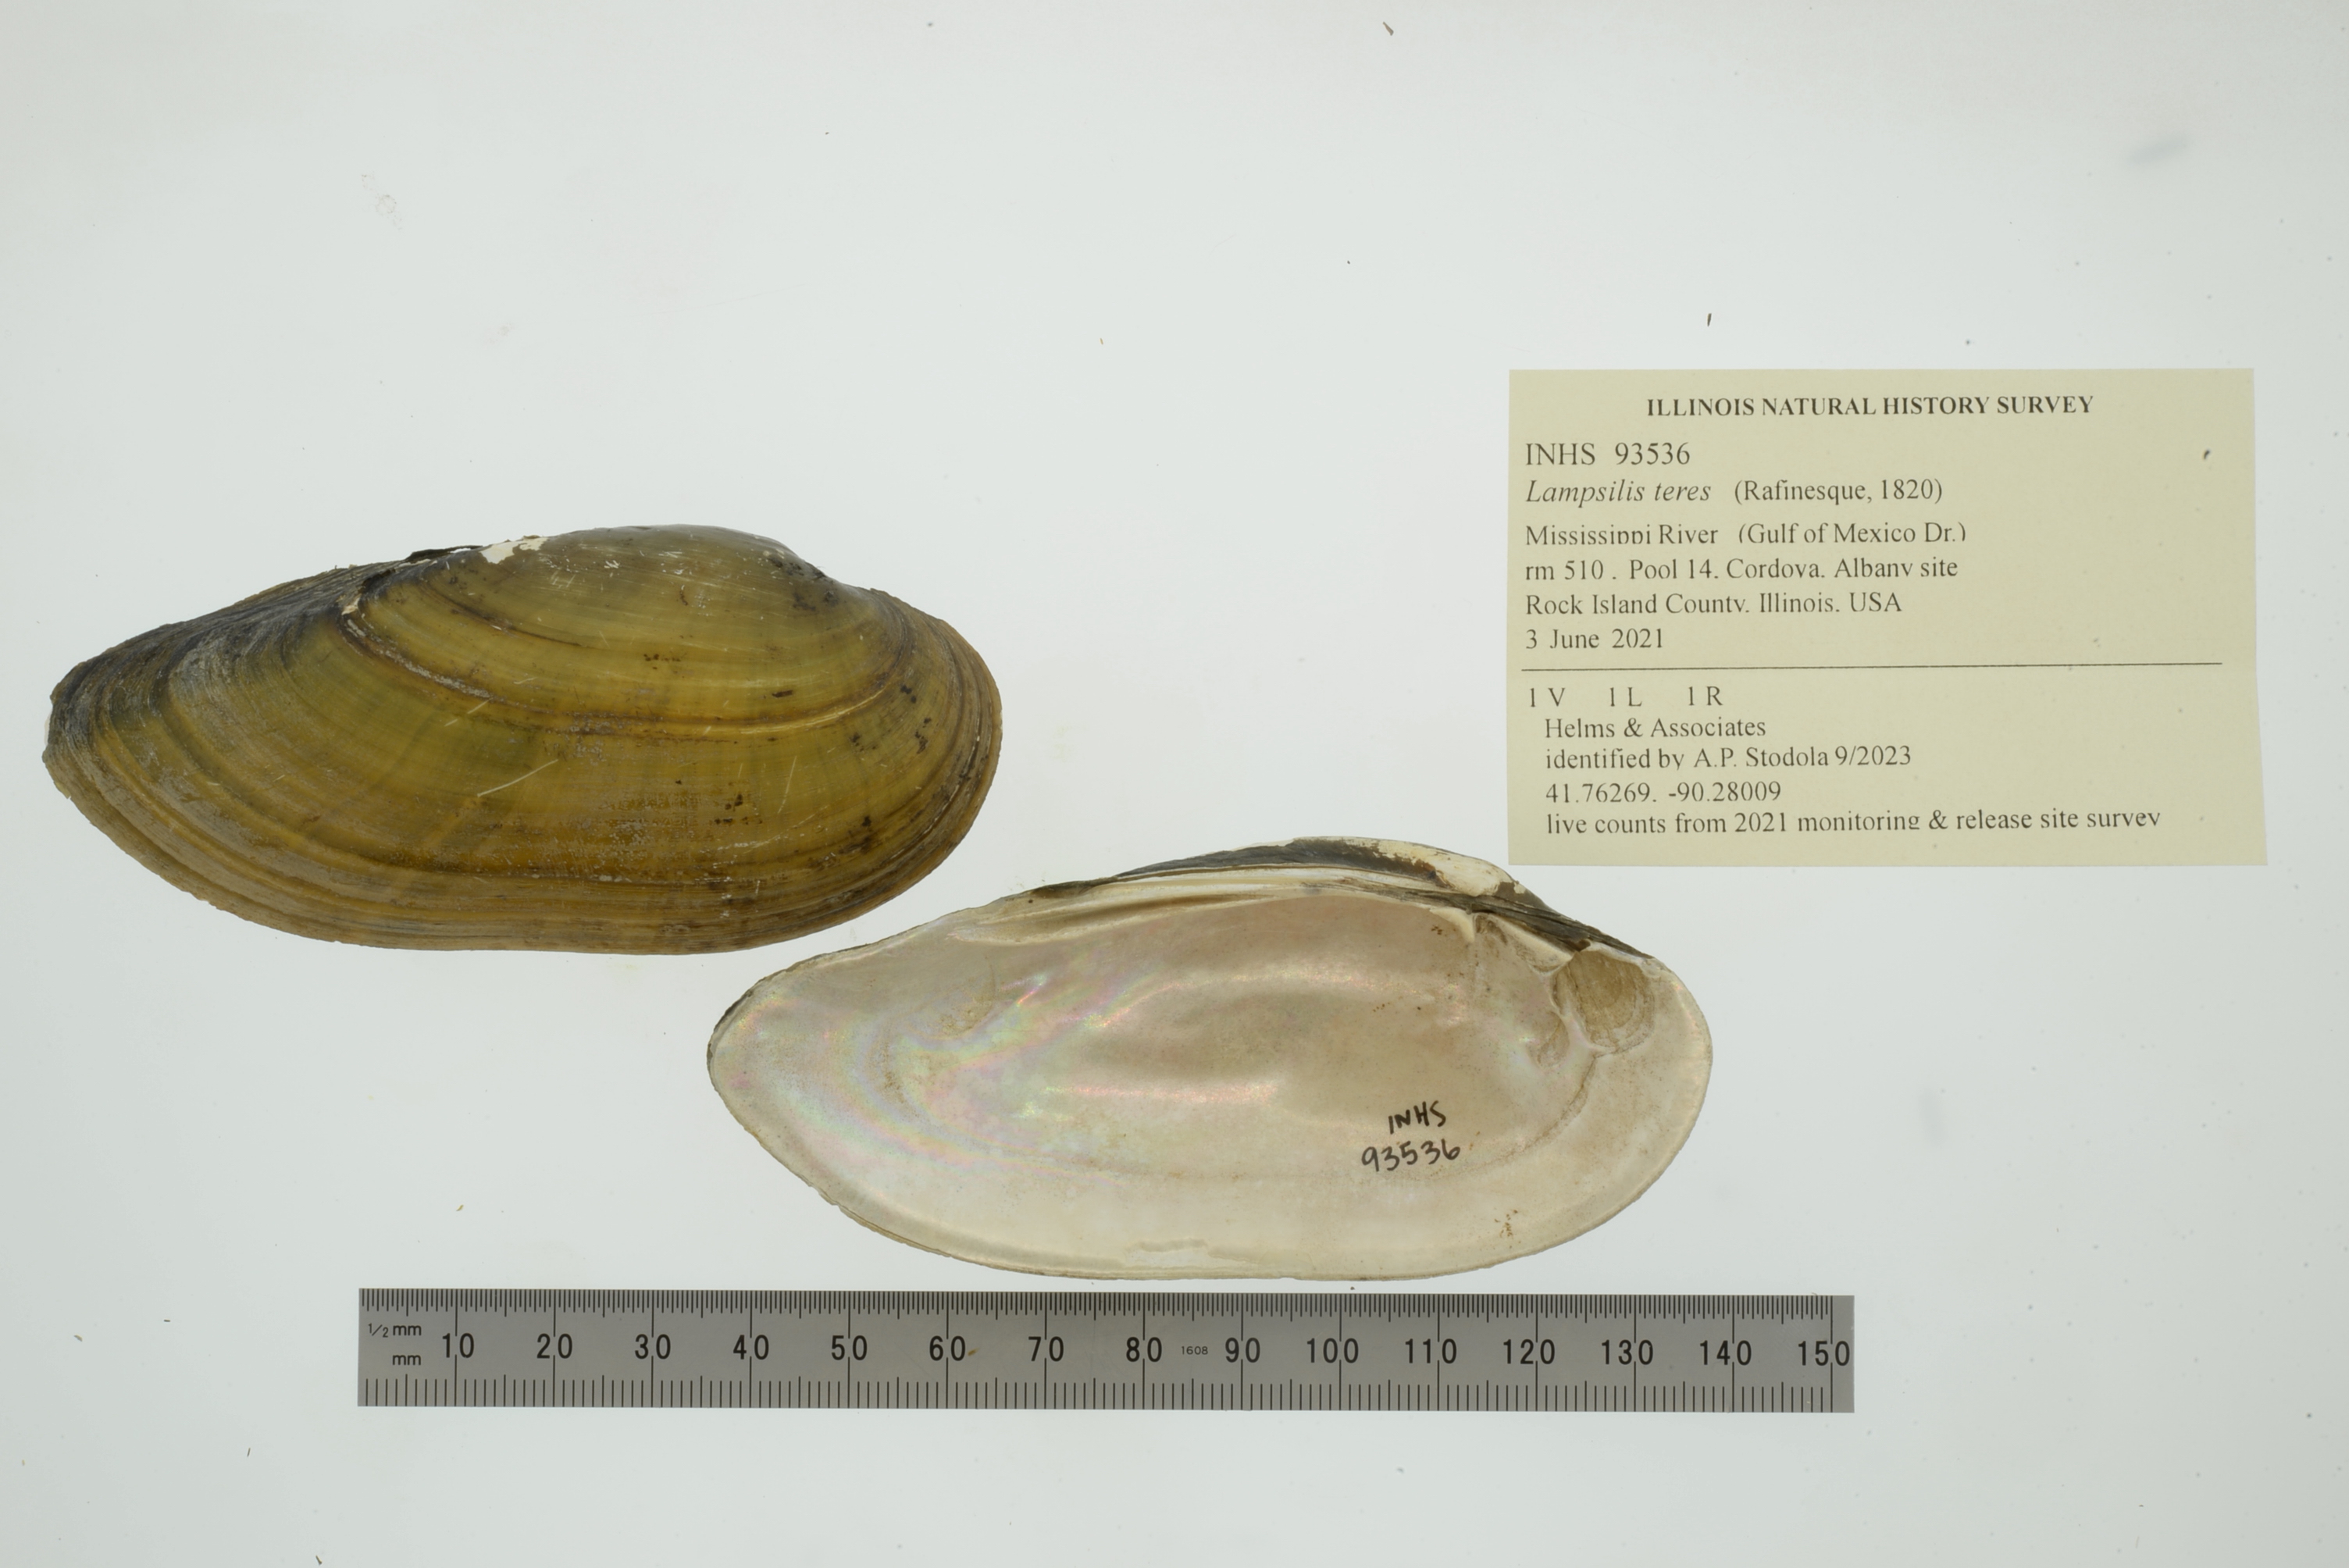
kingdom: Animalia
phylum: Mollusca
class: Bivalvia
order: Unionida
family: Unionidae
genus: Lampsilis
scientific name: Lampsilis teres
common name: Yellow sandshell
